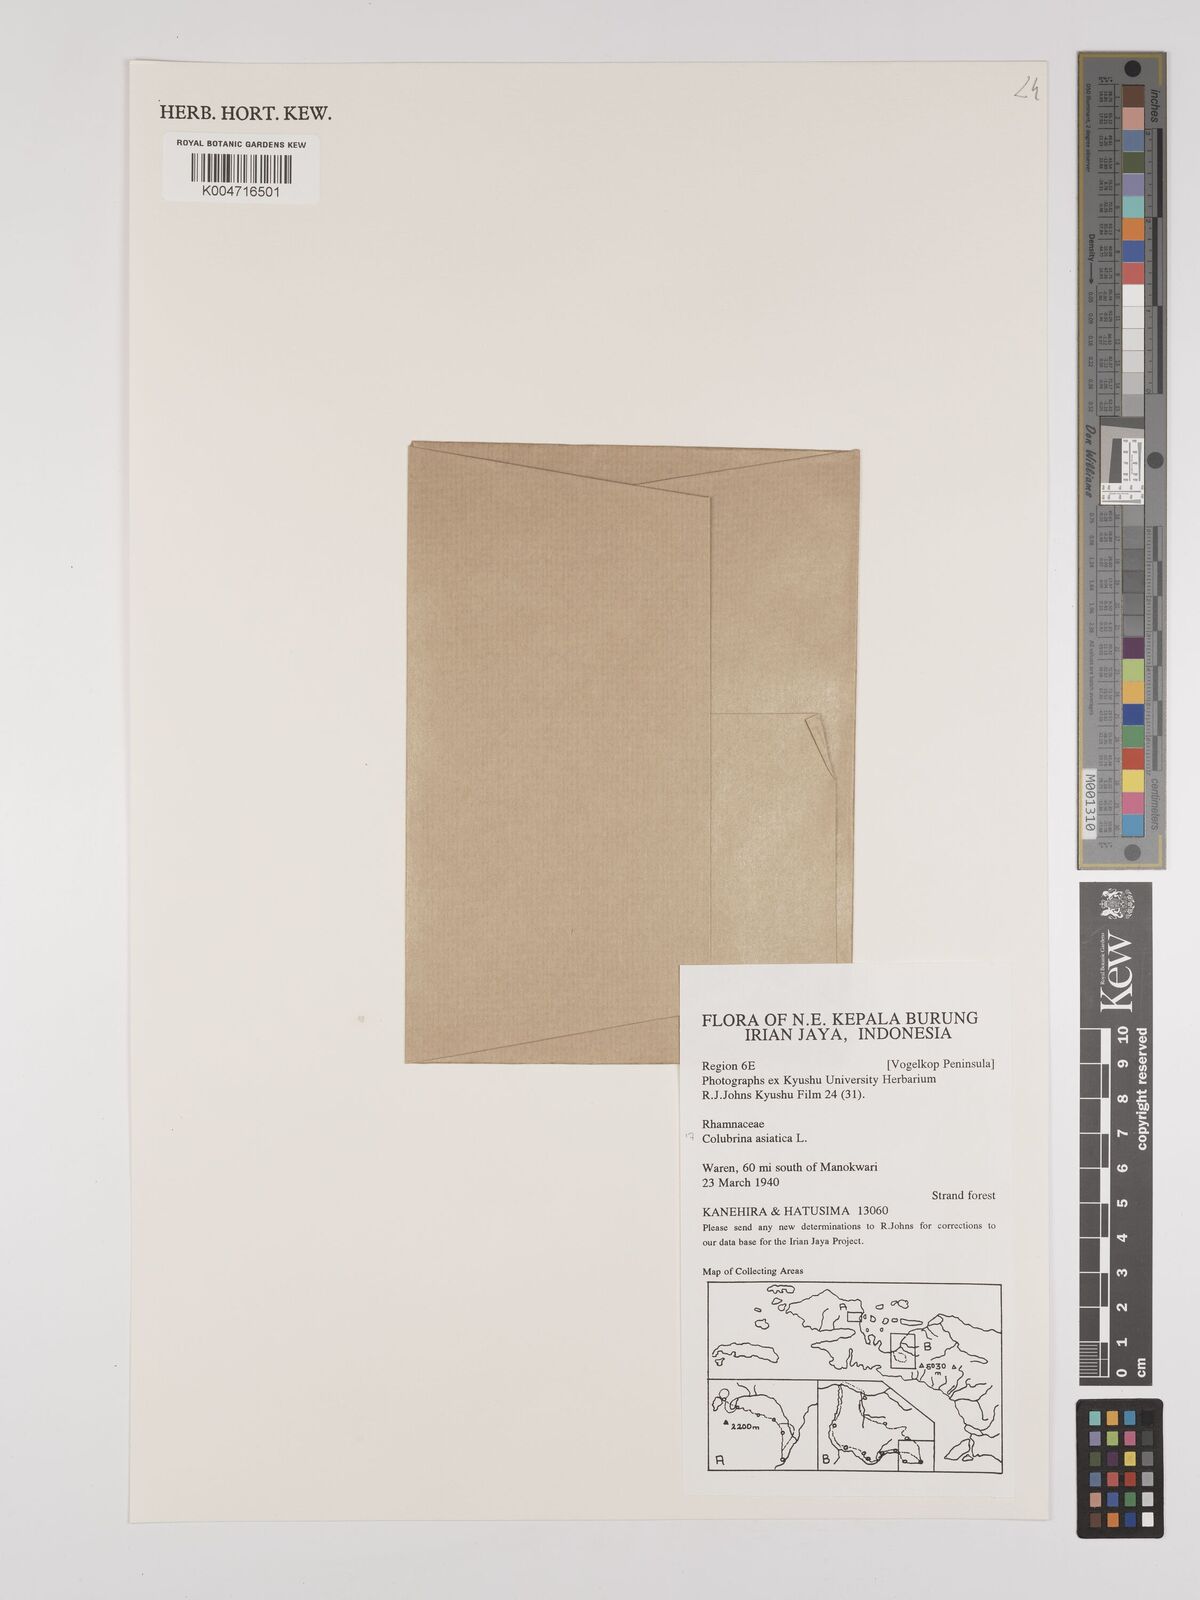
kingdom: Plantae
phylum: Tracheophyta
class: Magnoliopsida
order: Rosales
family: Rhamnaceae
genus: Colubrina
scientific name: Colubrina asiatica
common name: Asian nakedwood
